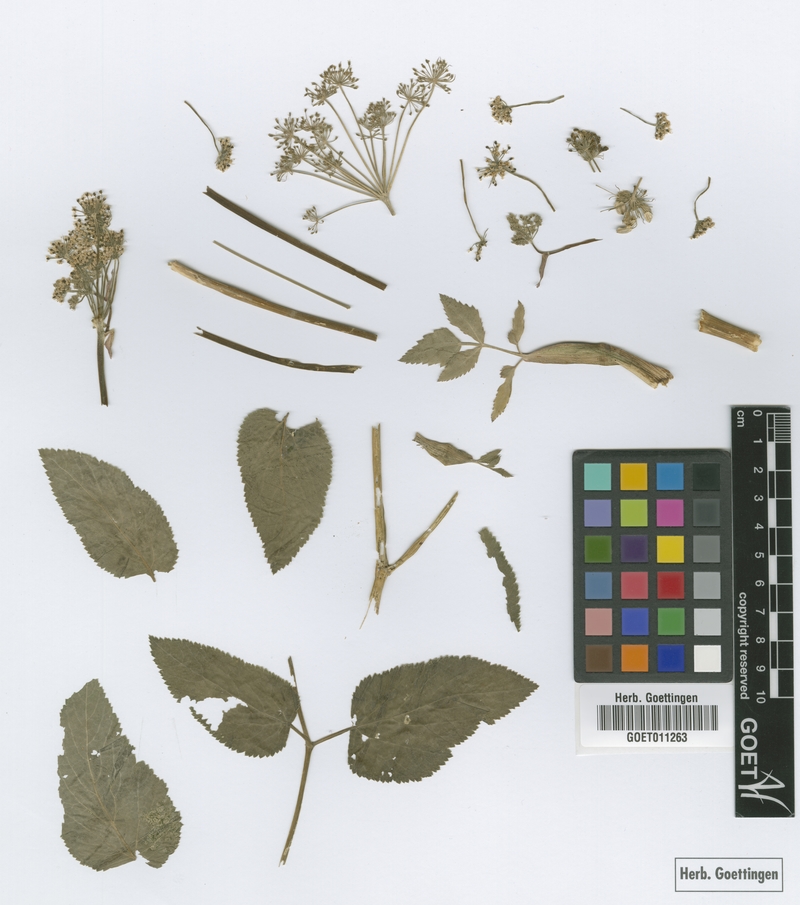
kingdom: Plantae
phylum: Tracheophyta
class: Magnoliopsida
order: Apiales
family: Apiaceae
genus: Angelica
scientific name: Angelica nelsonii
